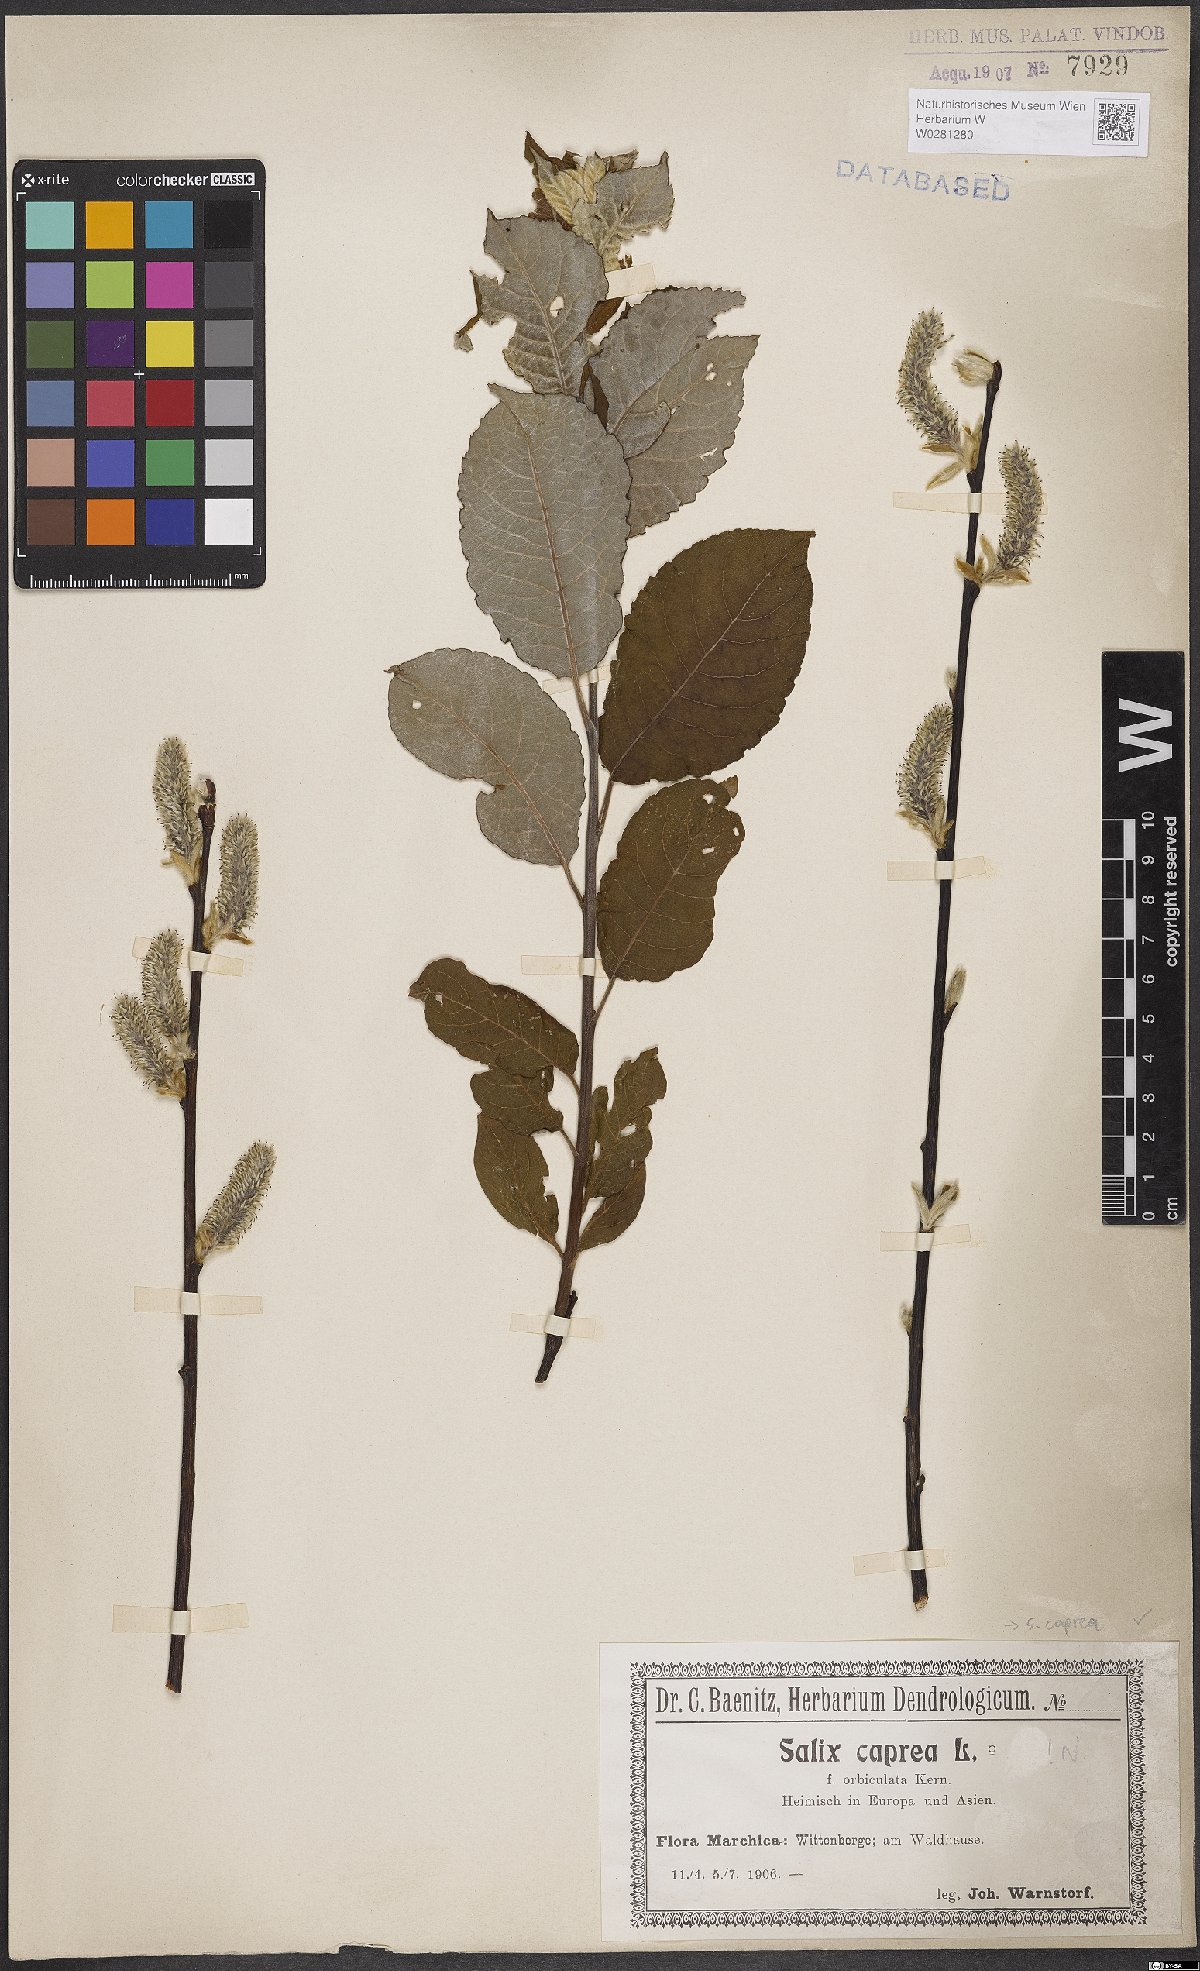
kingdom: Plantae
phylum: Tracheophyta
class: Magnoliopsida
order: Malpighiales
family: Salicaceae
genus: Salix
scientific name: Salix caprea
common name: Goat willow
